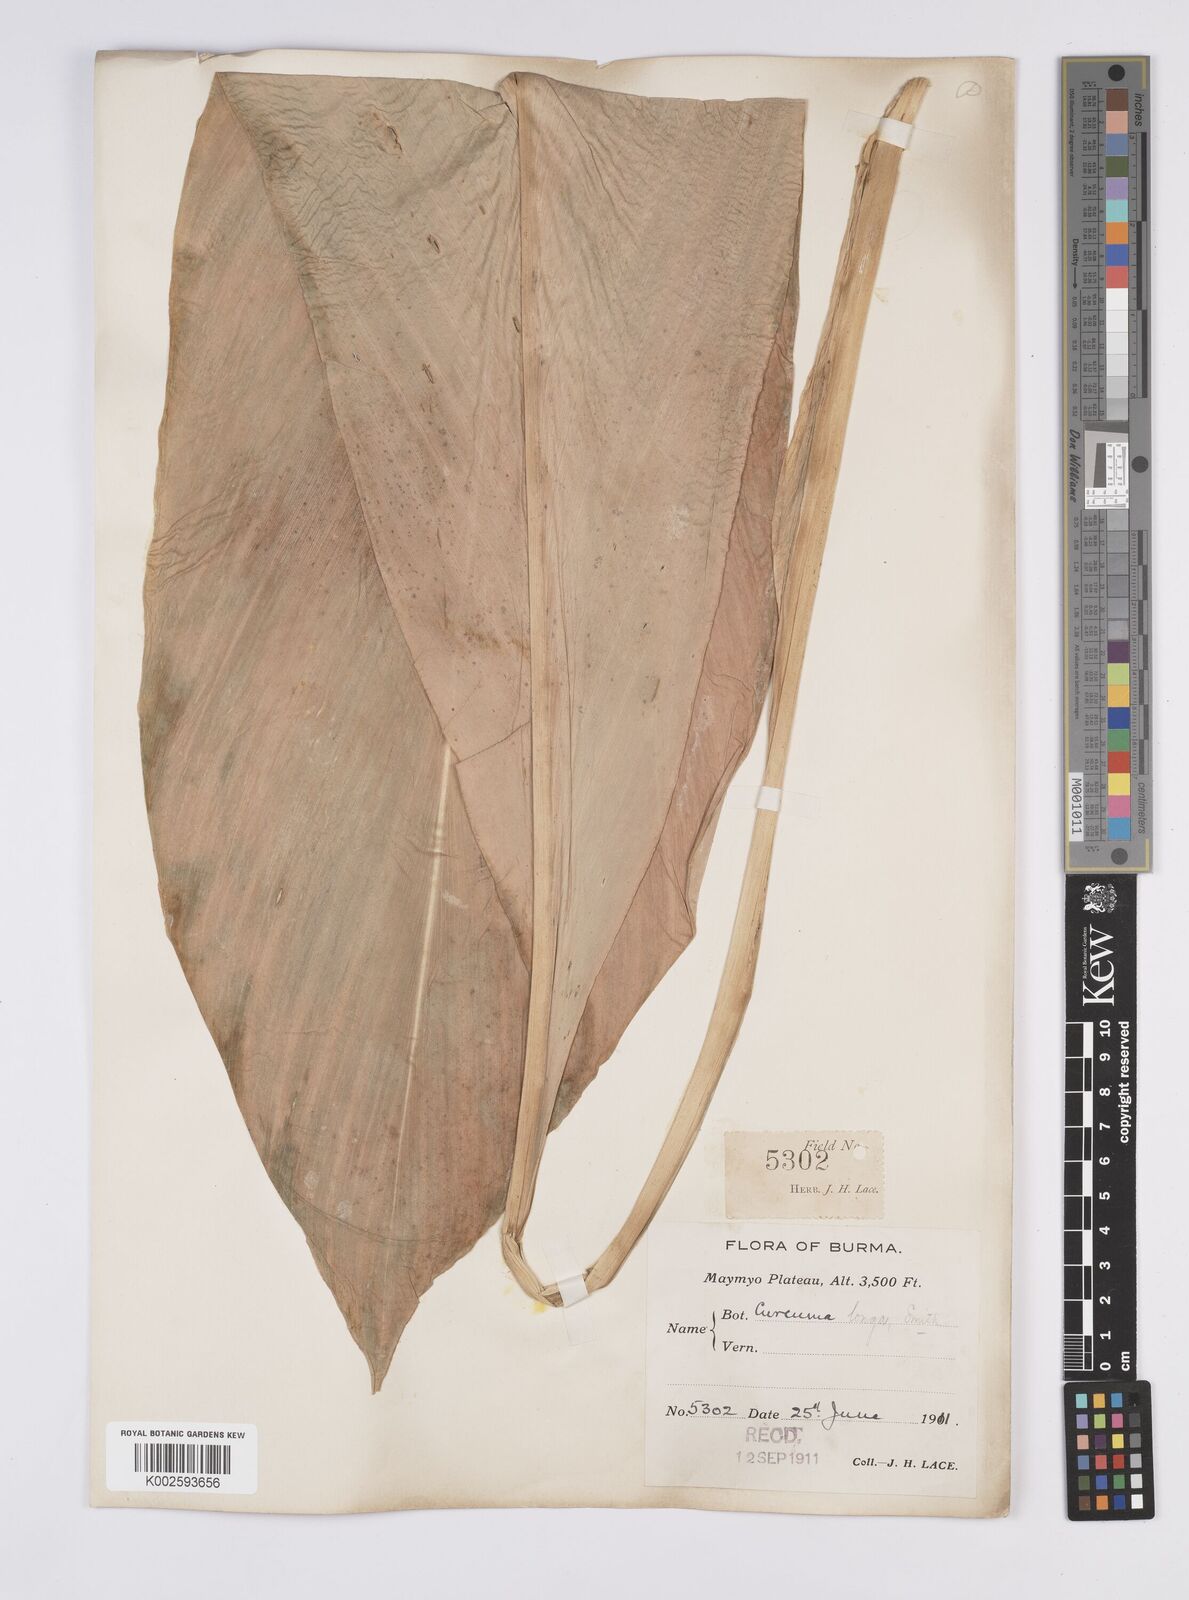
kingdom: Plantae
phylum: Tracheophyta
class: Liliopsida
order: Zingiberales
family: Zingiberaceae
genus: Curcuma
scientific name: Curcuma longa
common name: Turmeric
